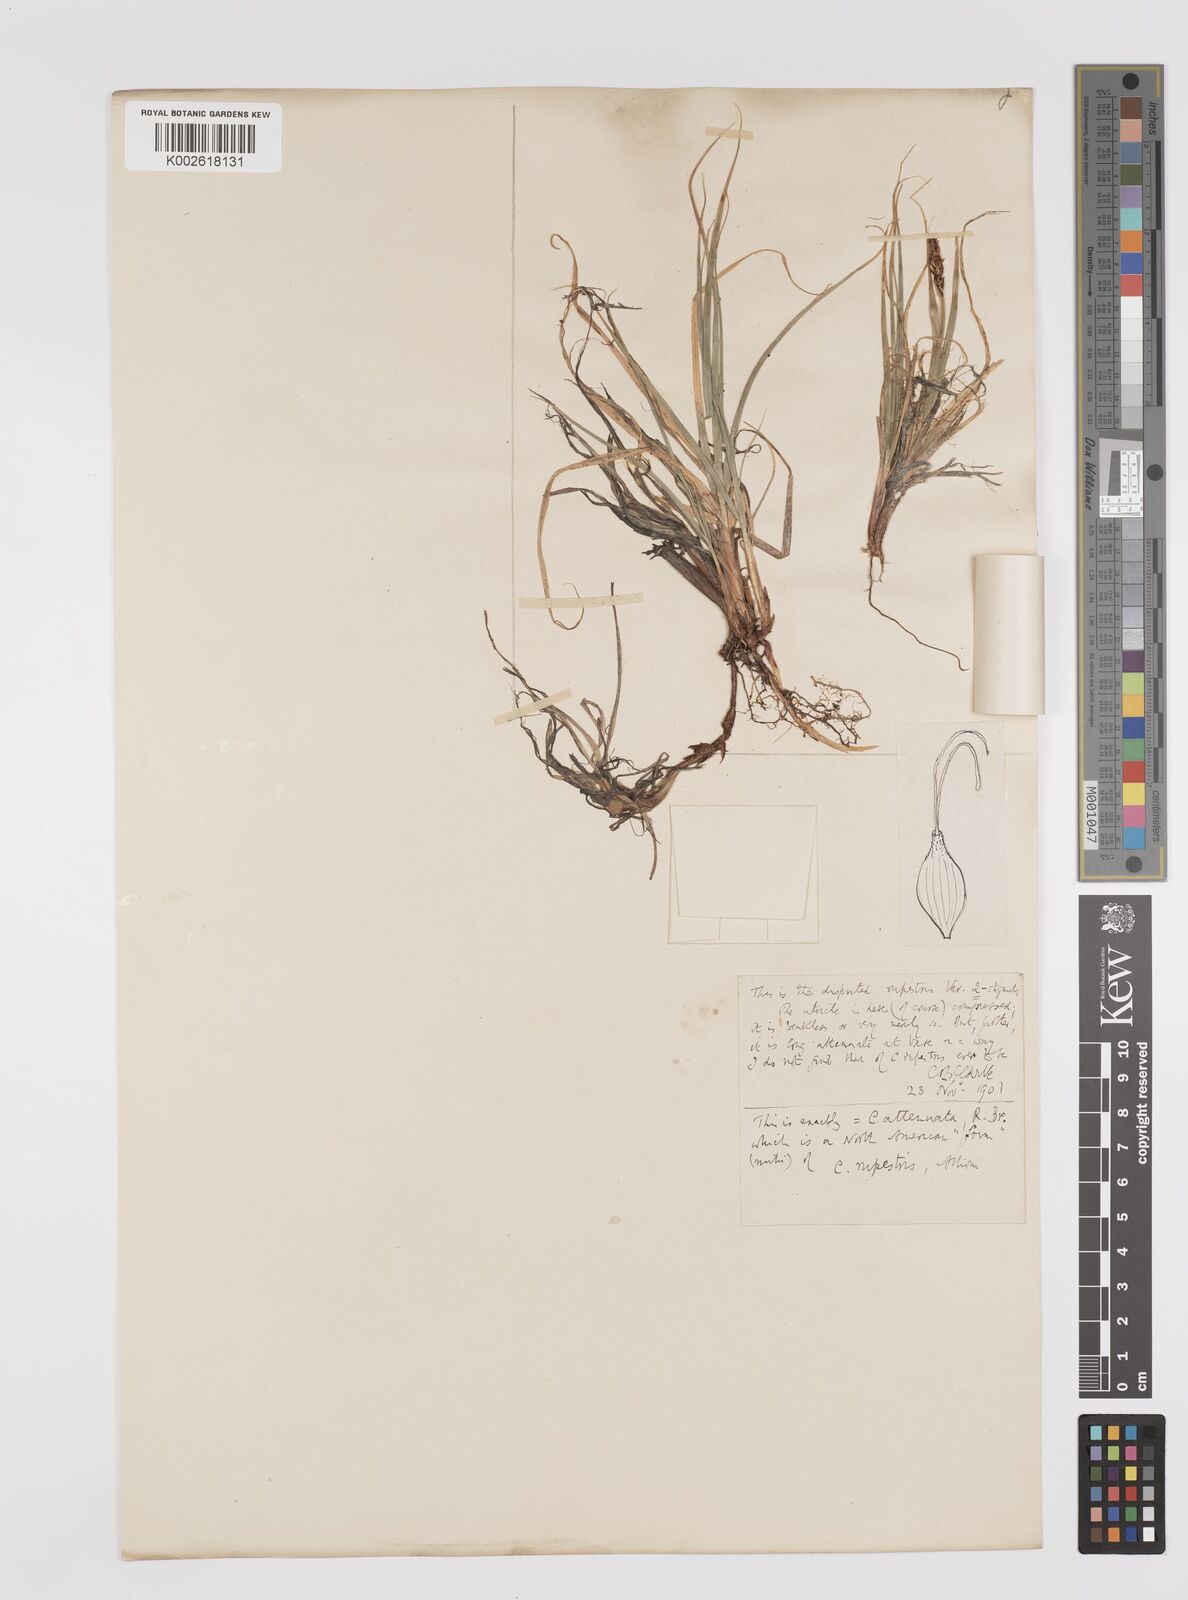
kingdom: Plantae
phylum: Tracheophyta
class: Liliopsida
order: Poales
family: Cyperaceae
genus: Carex
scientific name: Carex rupestris
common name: Rock sedge
